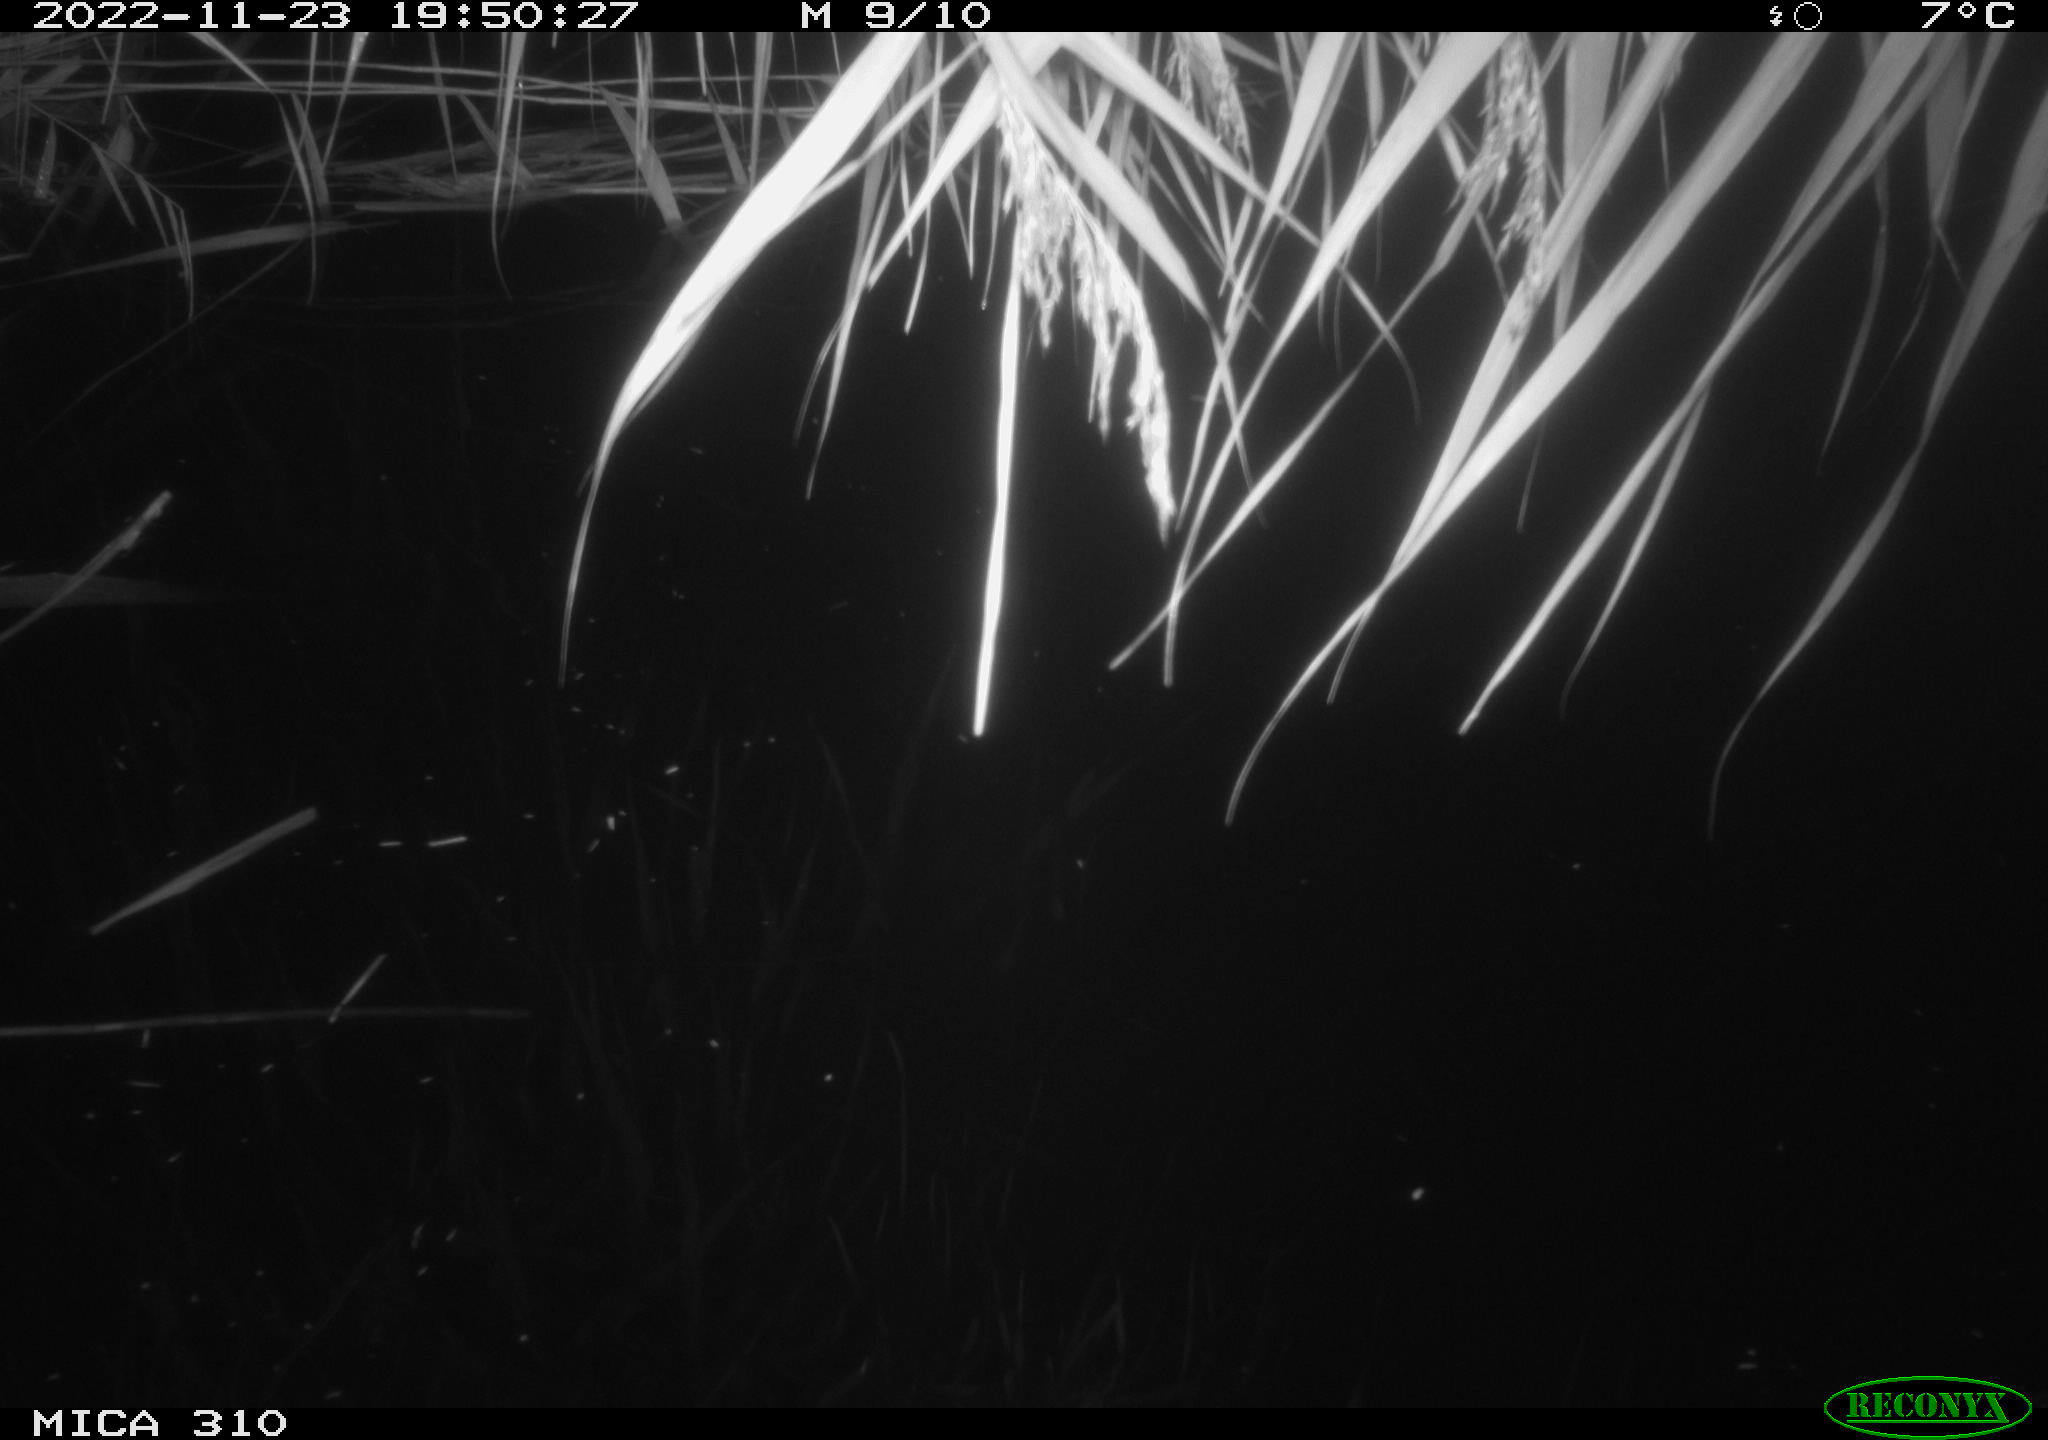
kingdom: Animalia
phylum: Chordata
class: Mammalia
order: Rodentia
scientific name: Rodentia
